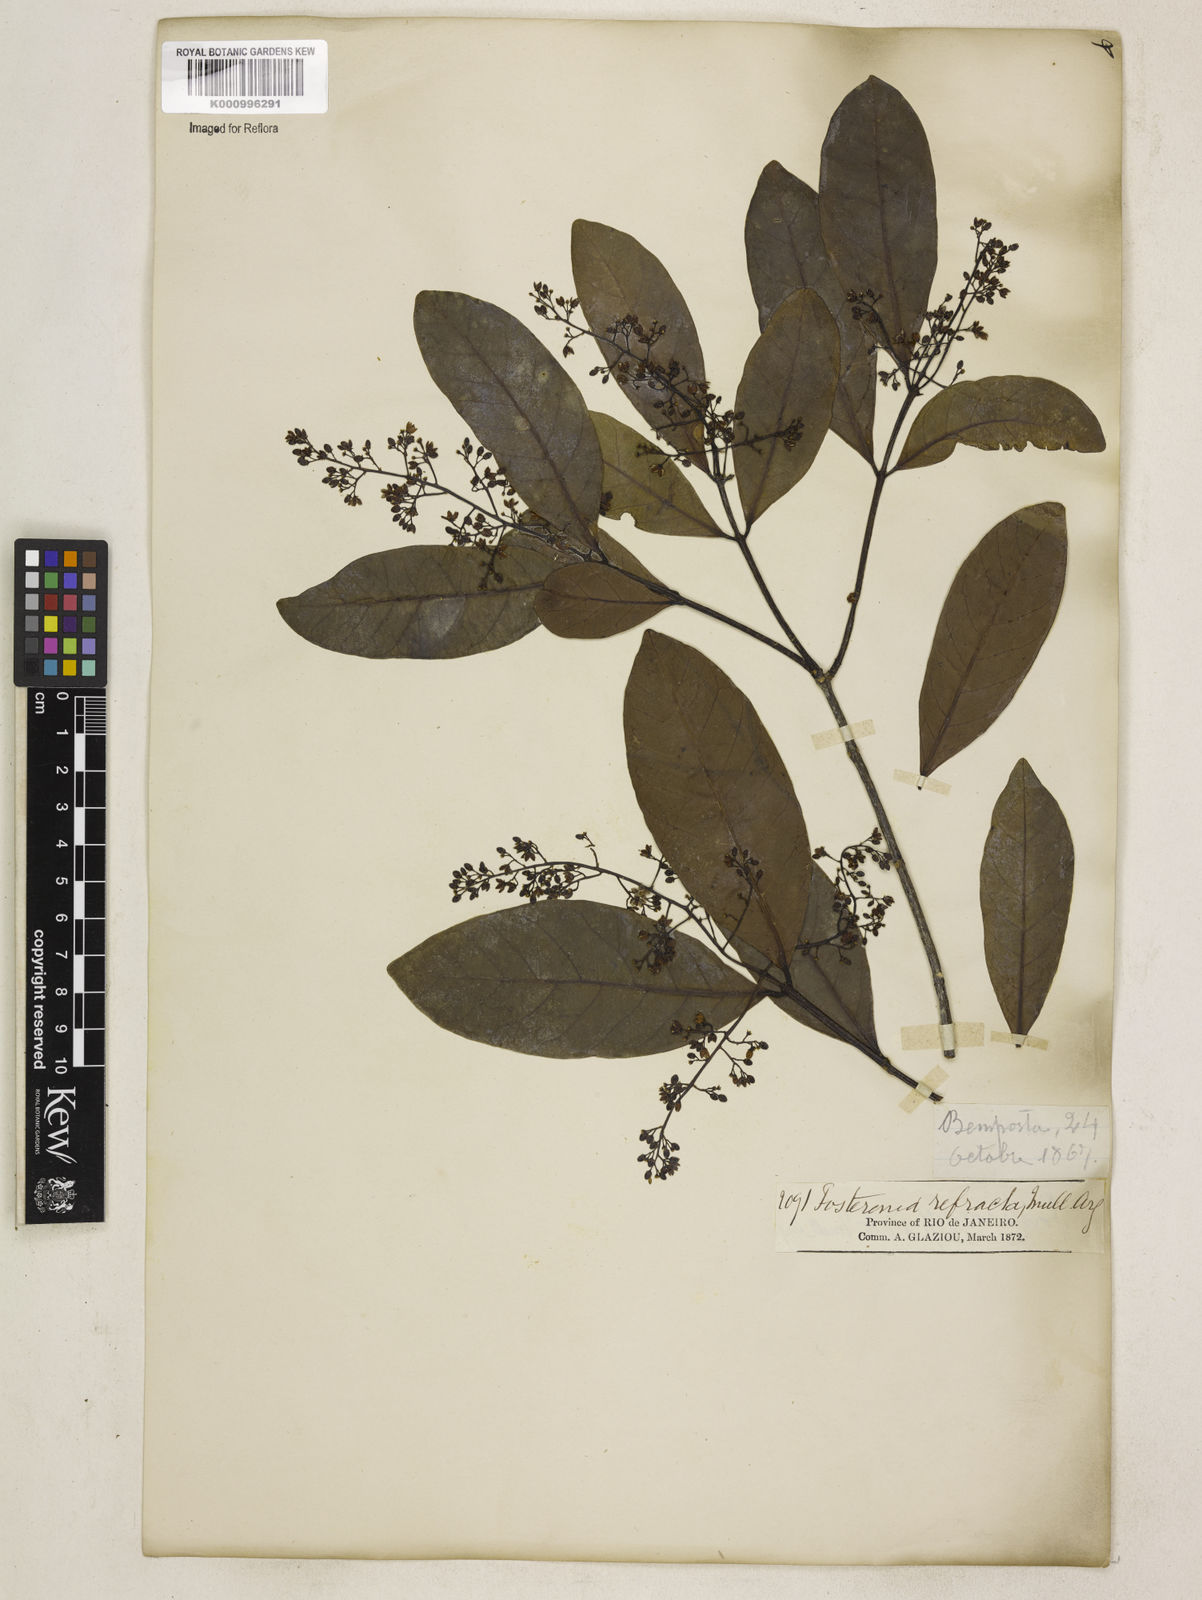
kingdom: Plantae
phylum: Tracheophyta
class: Magnoliopsida
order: Gentianales
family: Apocynaceae
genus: Forsteronia
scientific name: Forsteronia
